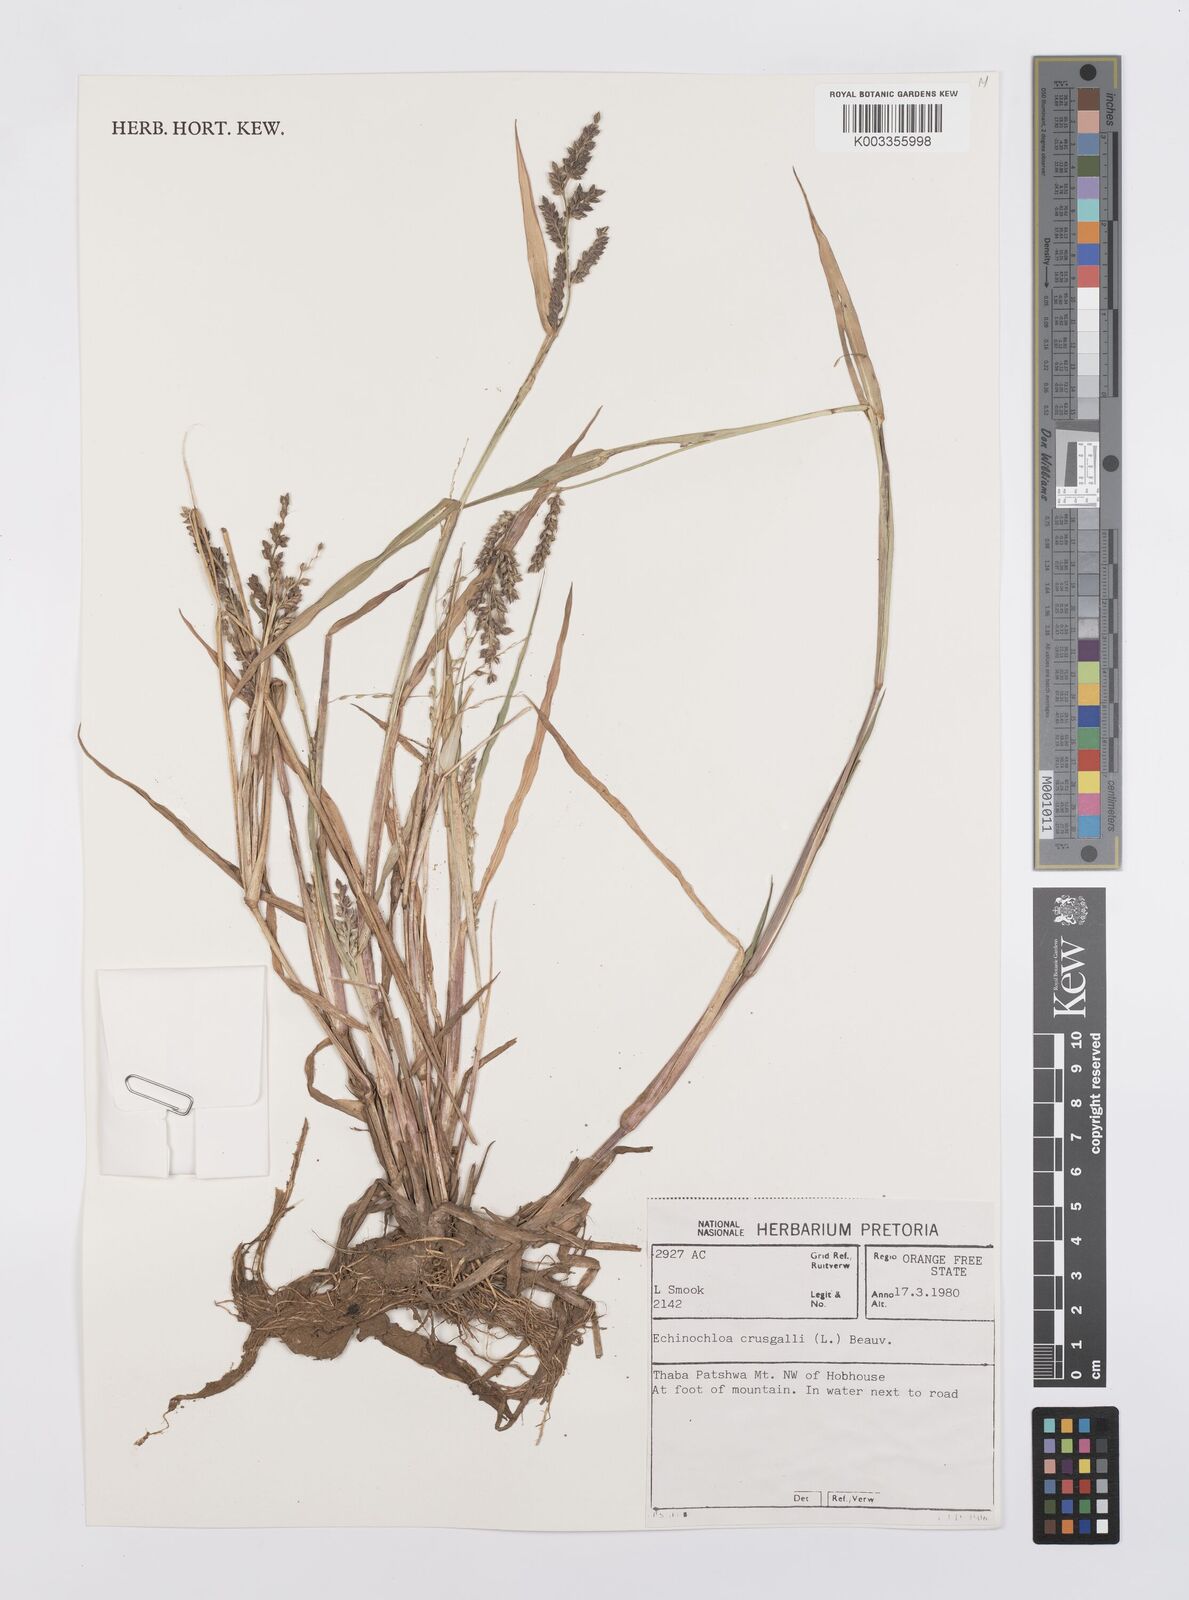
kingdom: Plantae
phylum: Tracheophyta
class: Liliopsida
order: Poales
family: Poaceae
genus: Echinochloa
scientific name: Echinochloa crus-galli
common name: Cockspur
